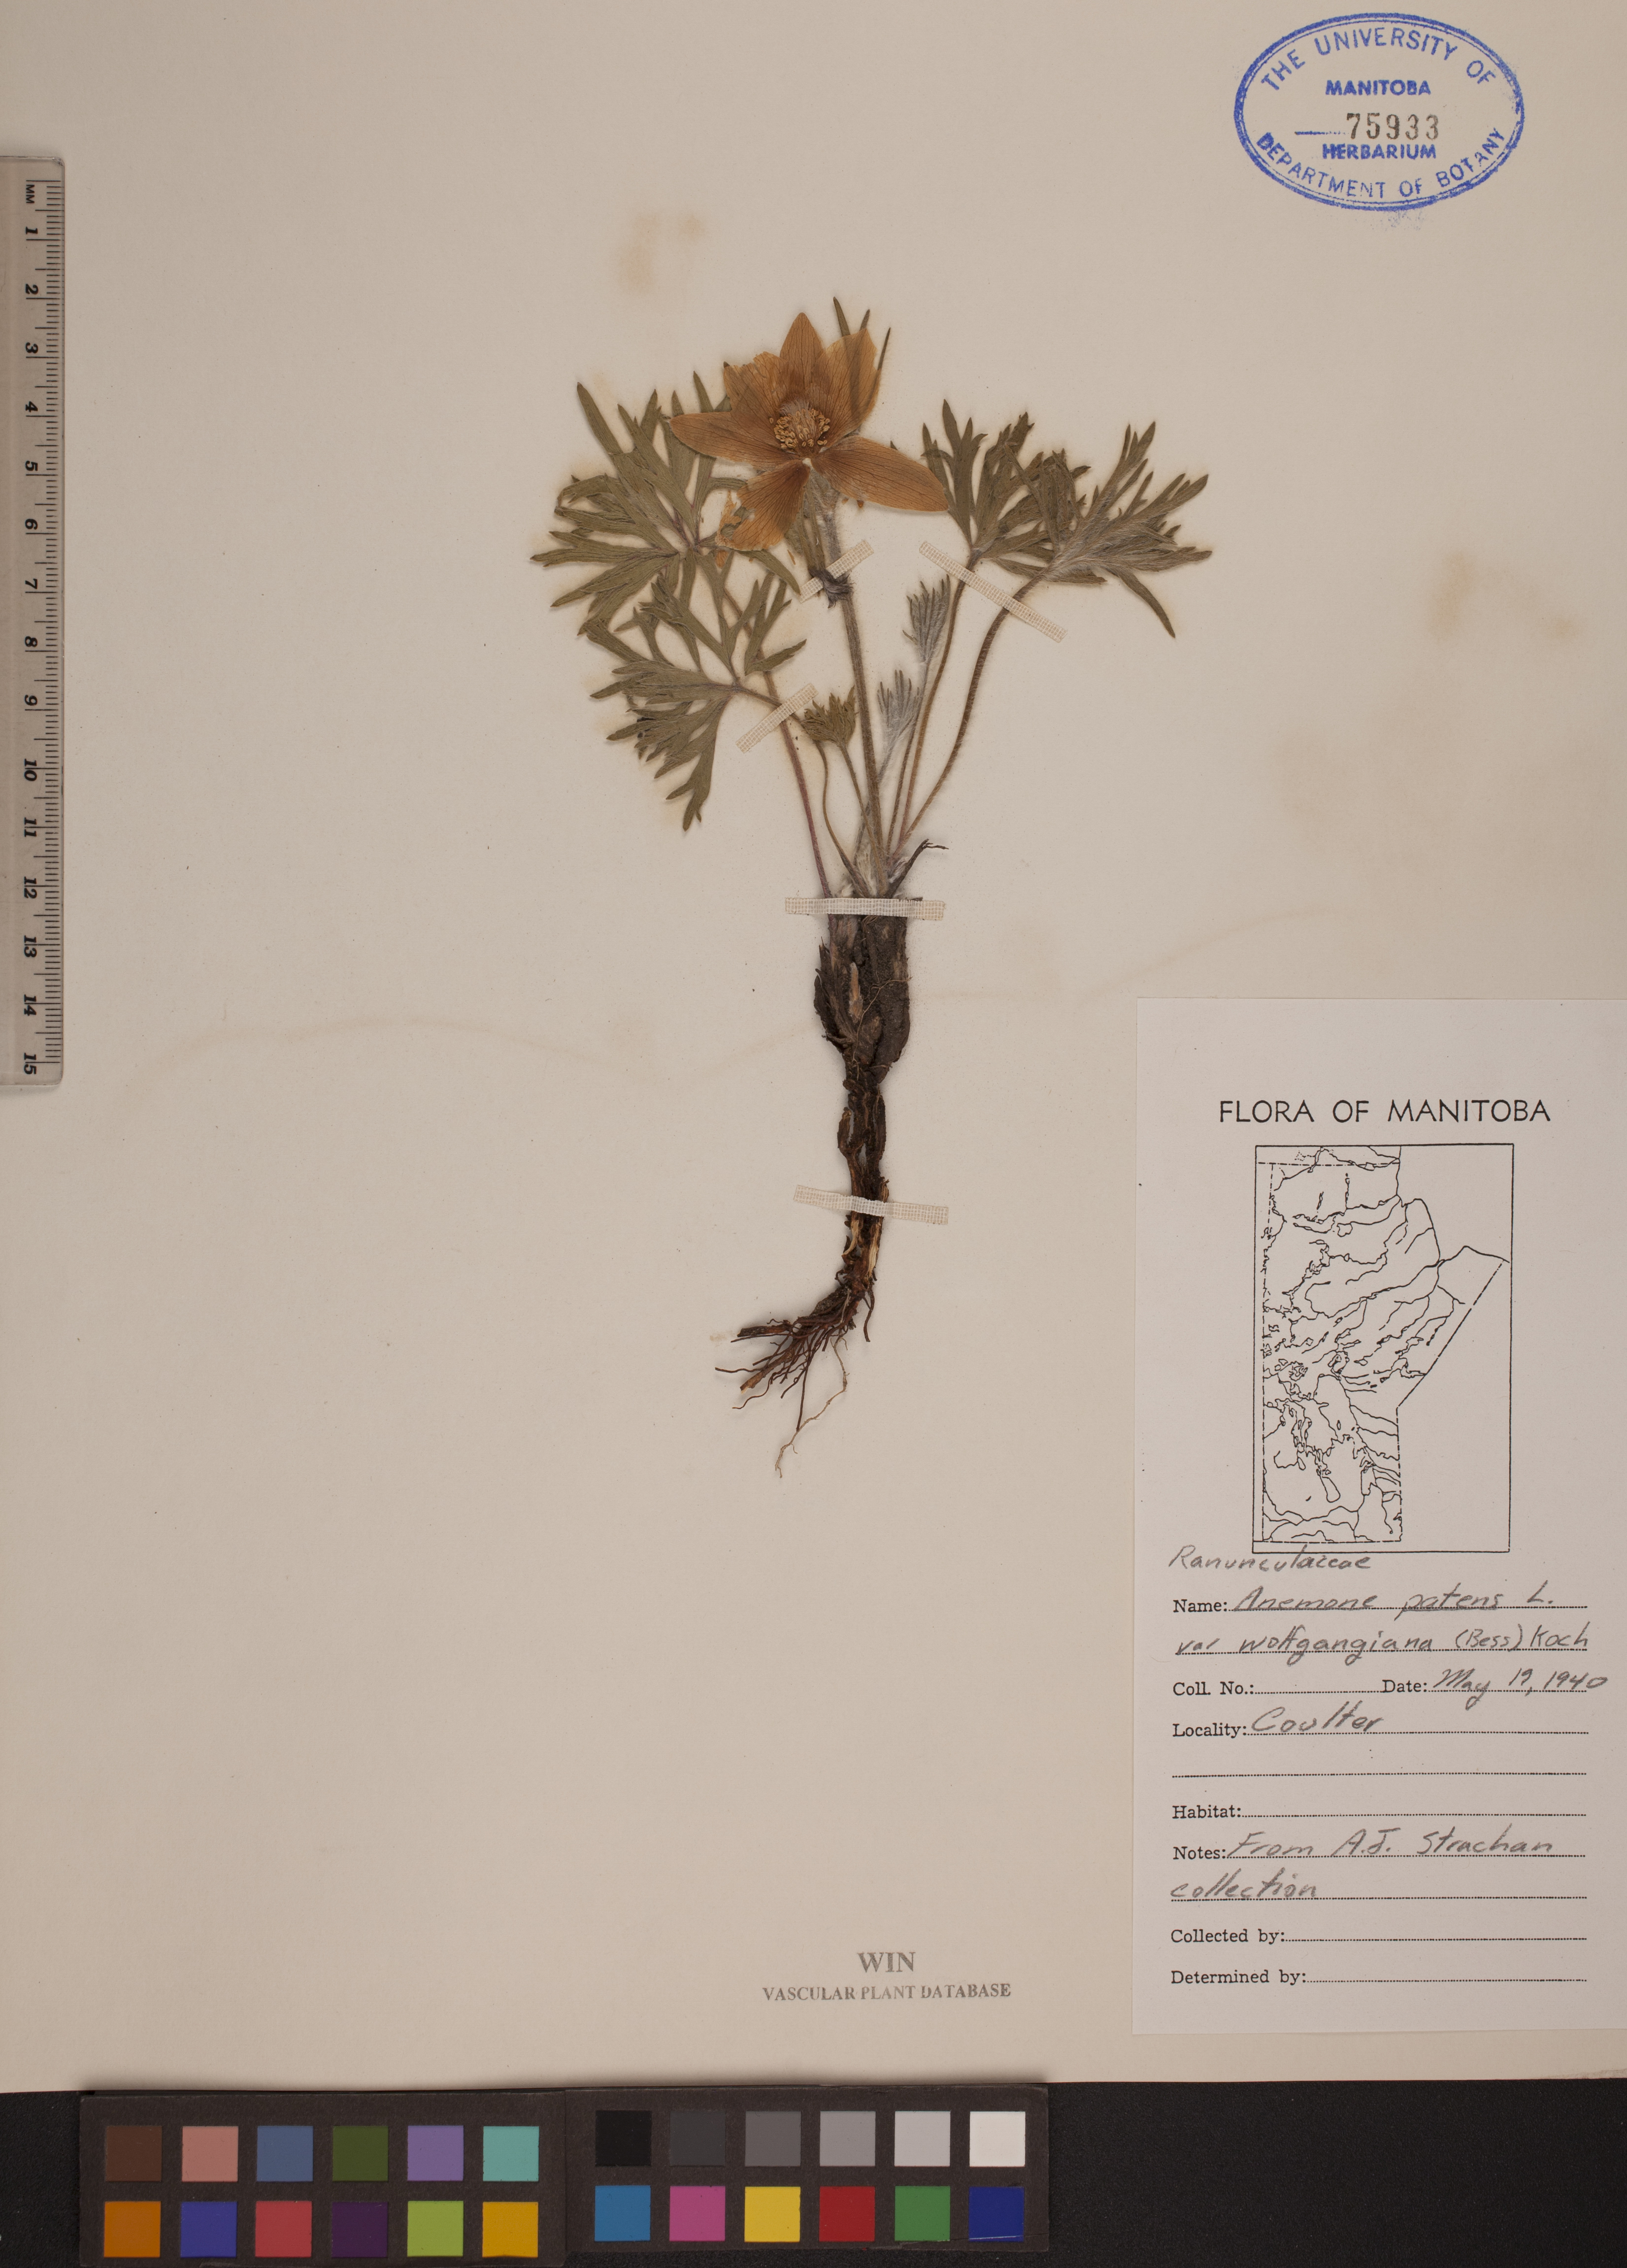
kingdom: Plantae
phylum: Tracheophyta
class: Magnoliopsida
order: Ranunculales
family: Ranunculaceae
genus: Pulsatilla
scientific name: Pulsatilla
